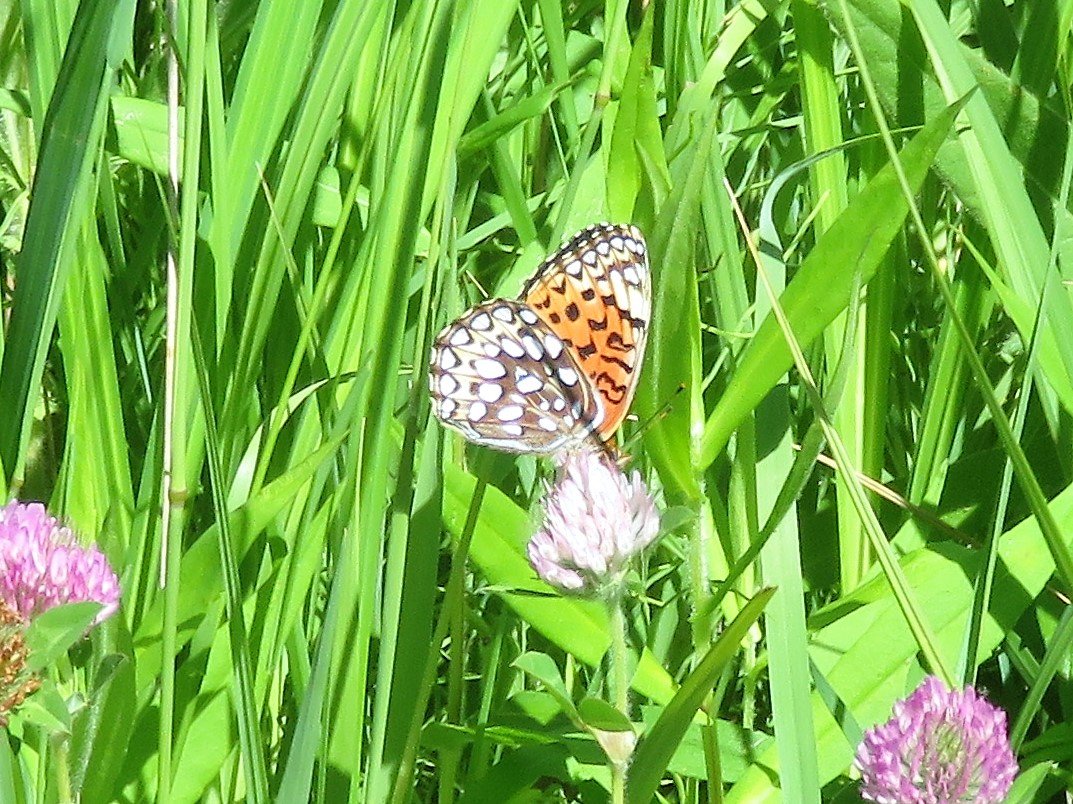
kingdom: Animalia
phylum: Arthropoda
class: Insecta
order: Lepidoptera
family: Nymphalidae
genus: Speyeria
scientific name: Speyeria atlantis
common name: Atlantis Fritillary
